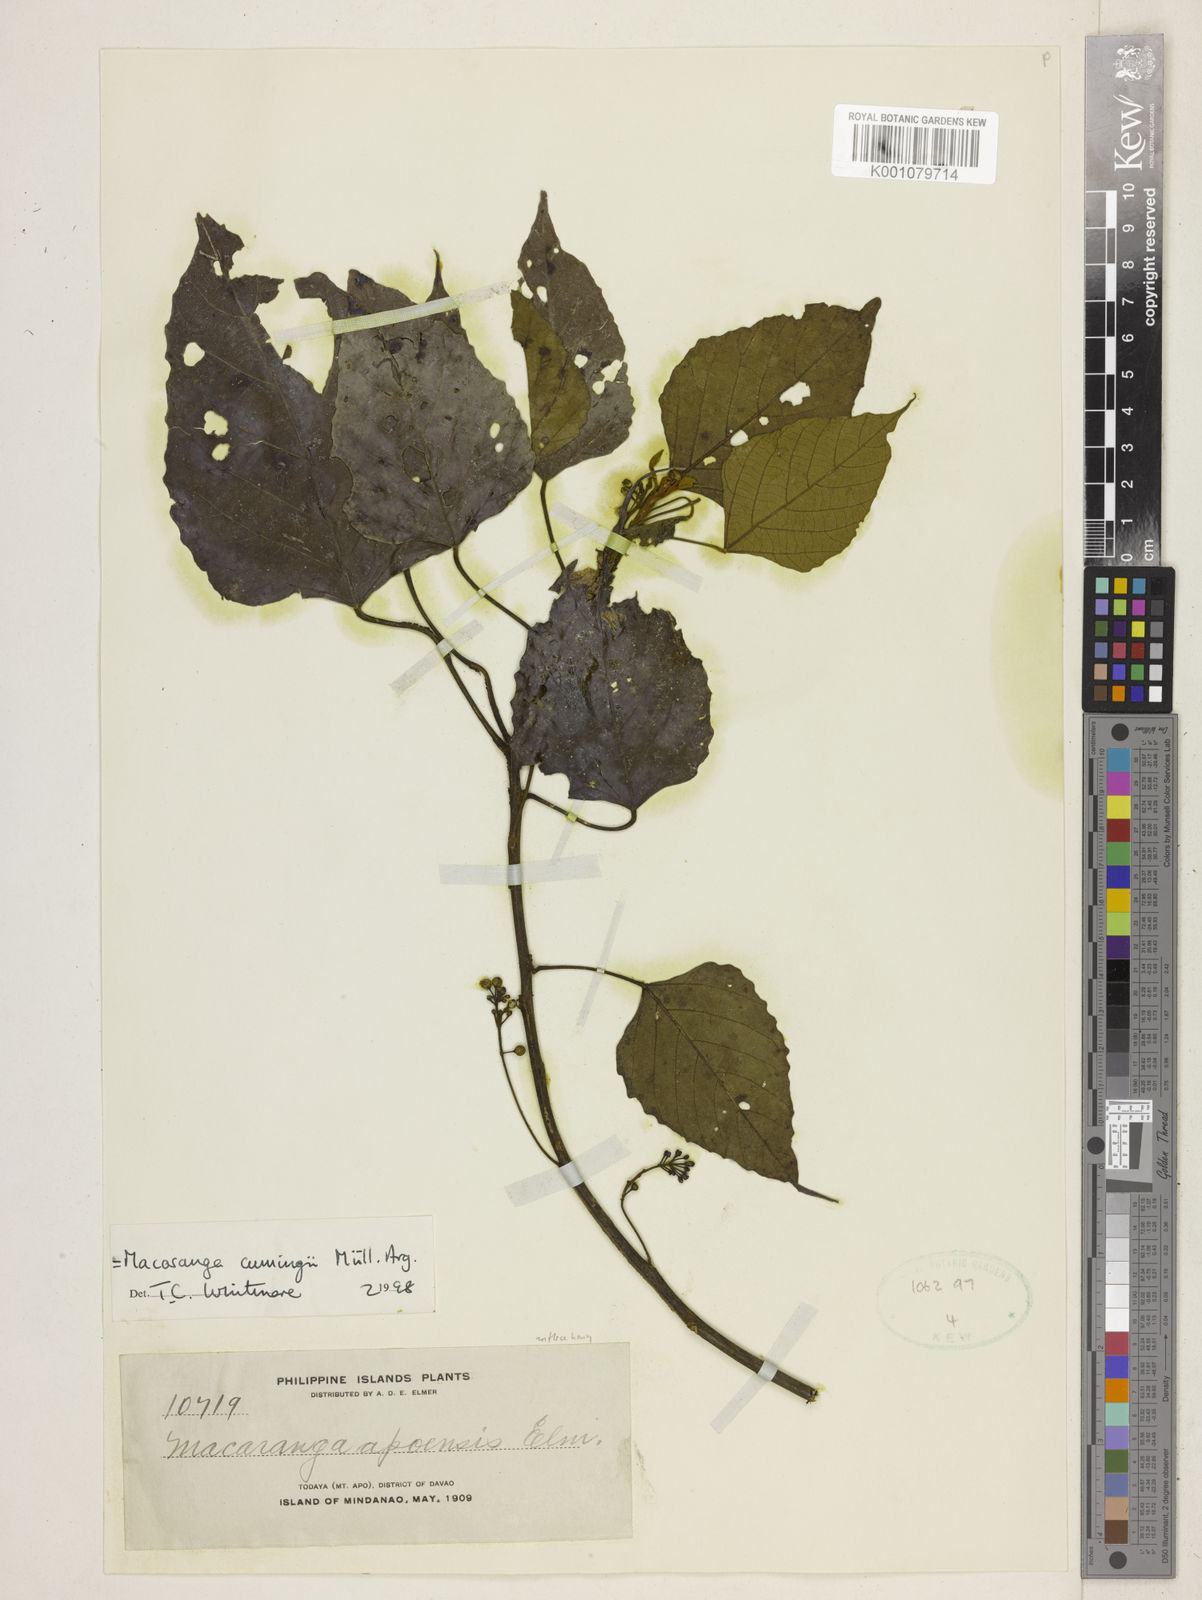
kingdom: Plantae
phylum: Tracheophyta
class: Magnoliopsida
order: Malpighiales
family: Euphorbiaceae
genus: Macaranga
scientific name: Macaranga
